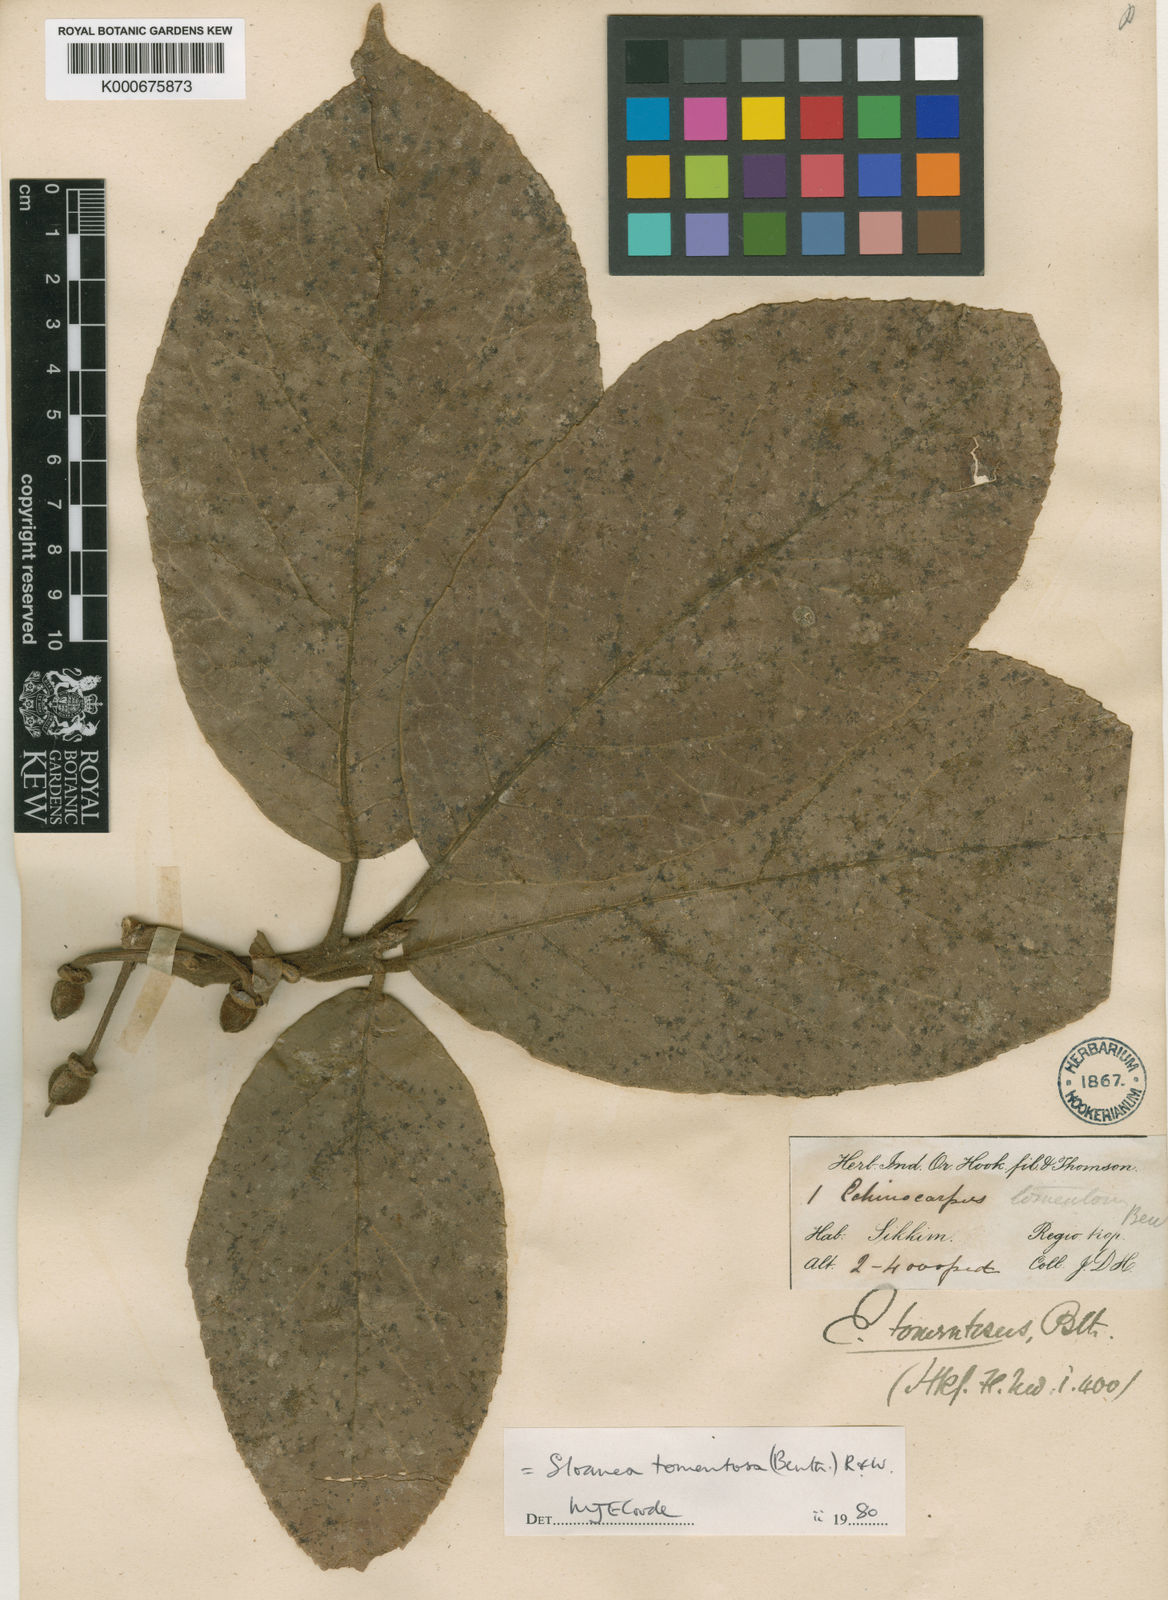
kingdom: Plantae
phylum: Tracheophyta
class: Magnoliopsida
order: Oxalidales
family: Elaeocarpaceae
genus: Sloanea
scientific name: Sloanea tomentosa
